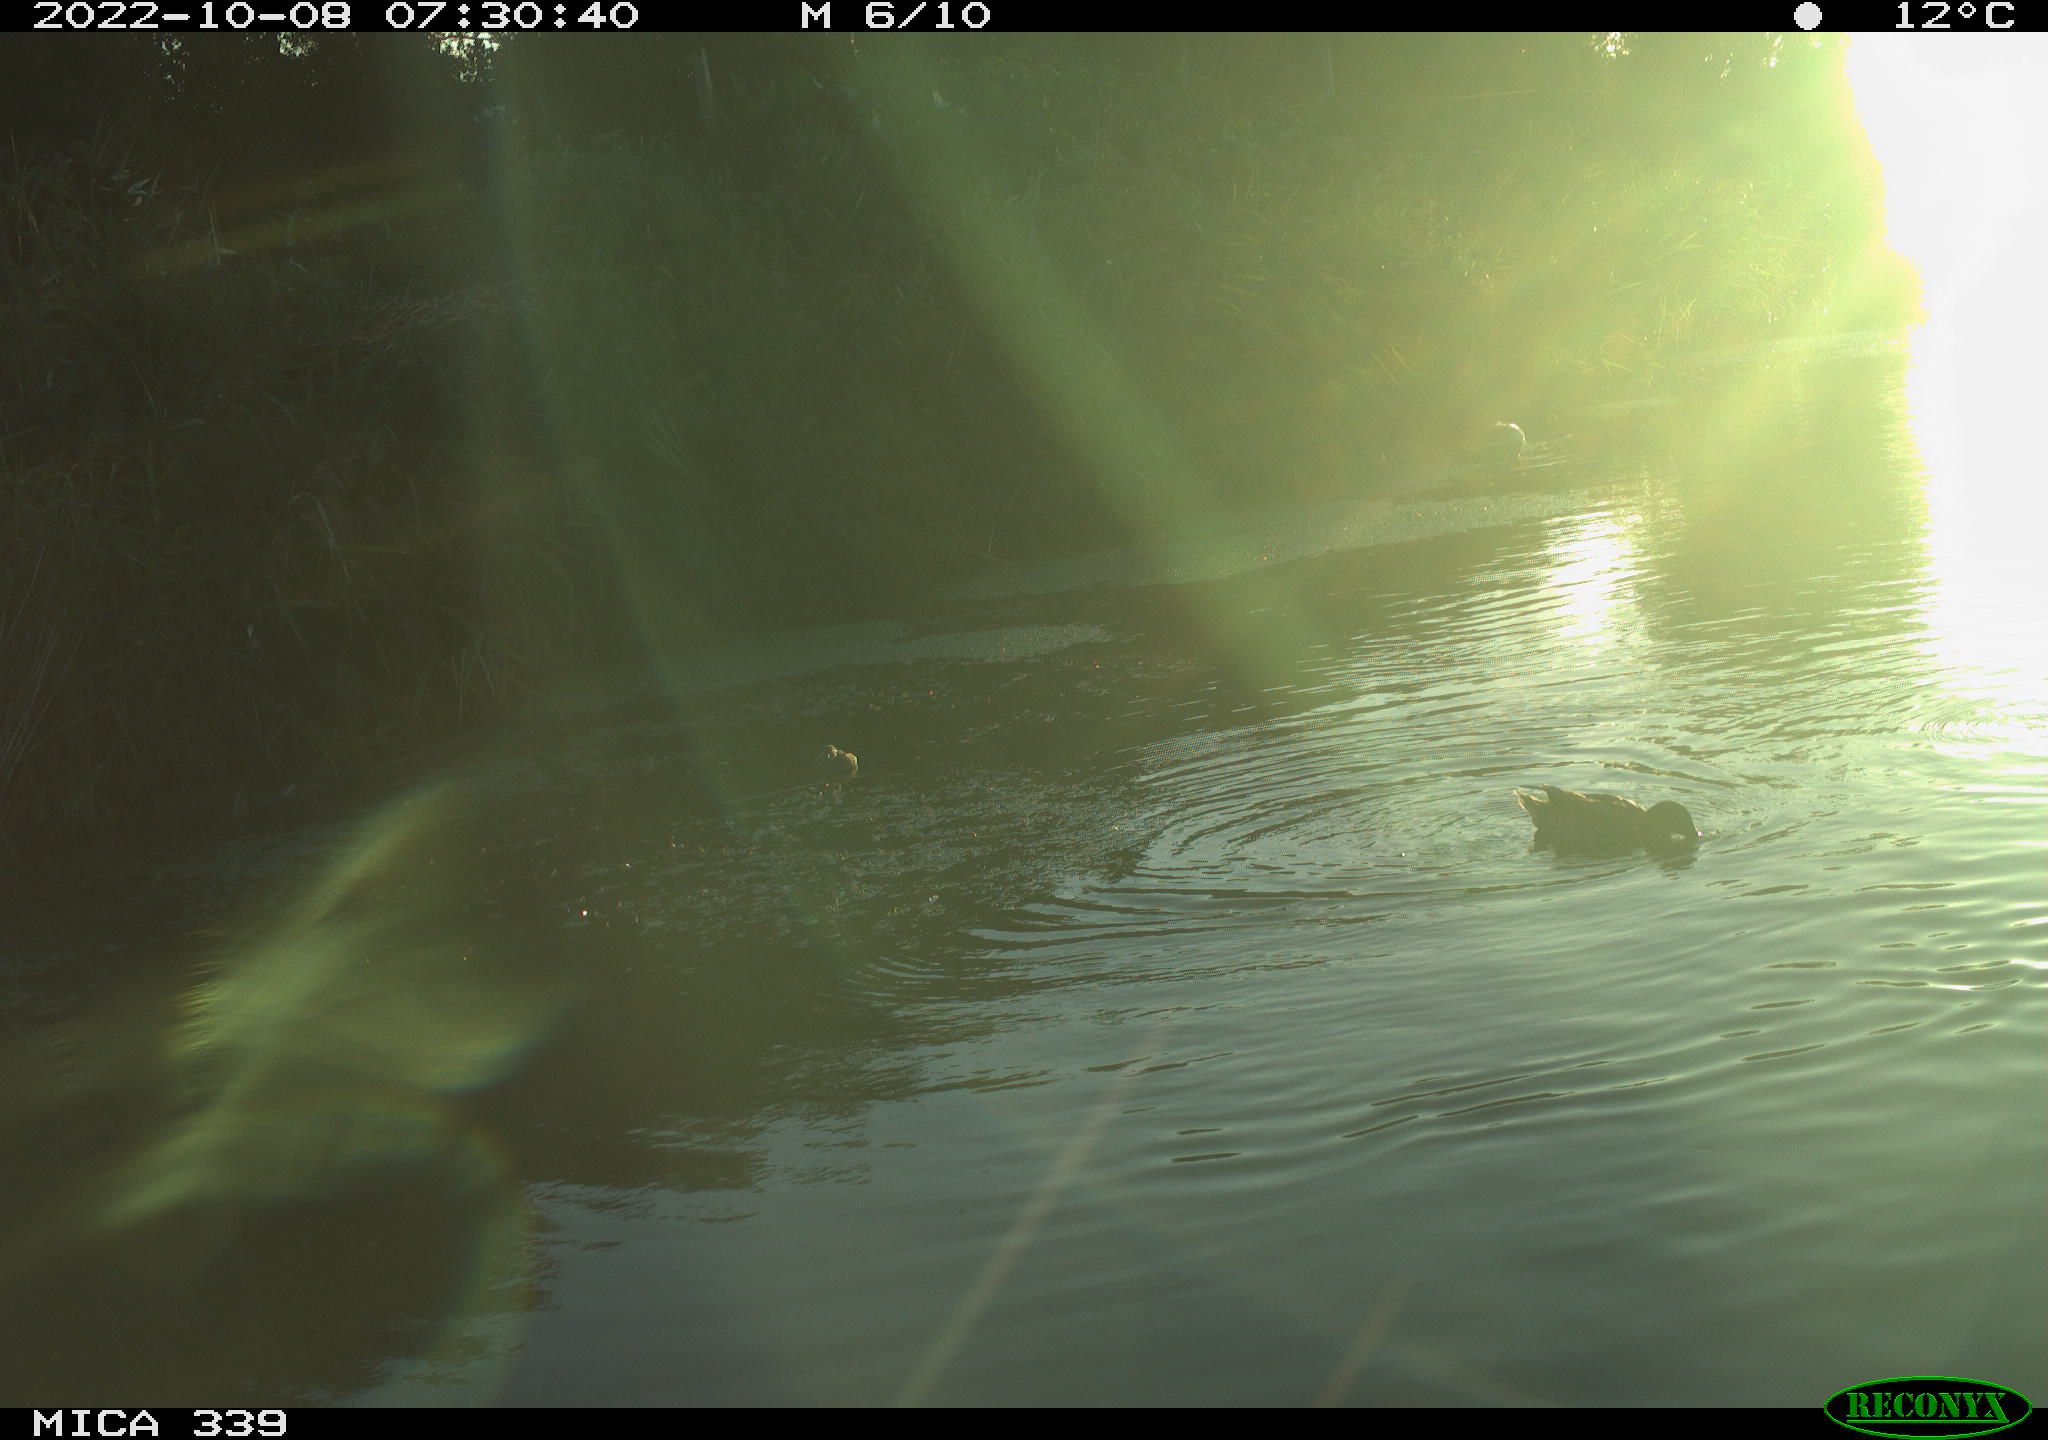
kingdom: Animalia
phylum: Chordata
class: Aves
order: Anseriformes
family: Anatidae
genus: Anas
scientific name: Anas platyrhynchos
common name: Mallard
